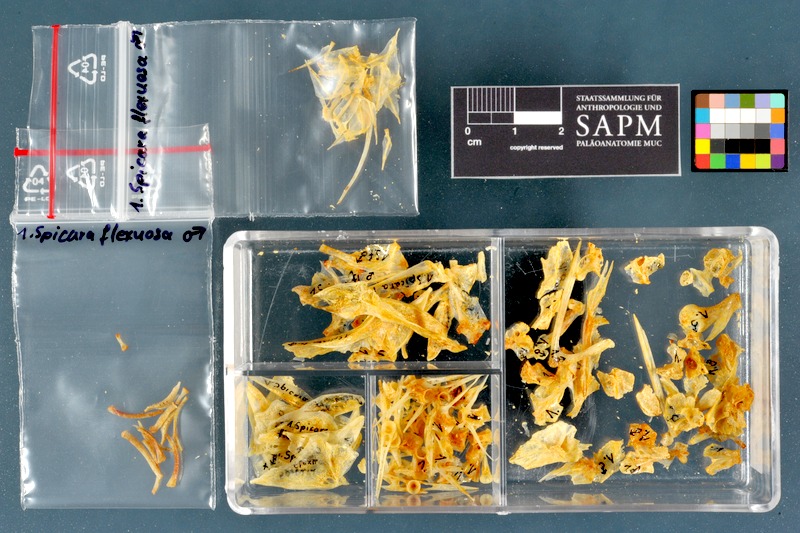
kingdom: Animalia
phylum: Chordata
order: Perciformes
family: Sparidae
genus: Spicara
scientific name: Spicara maena
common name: Blotched picarel
